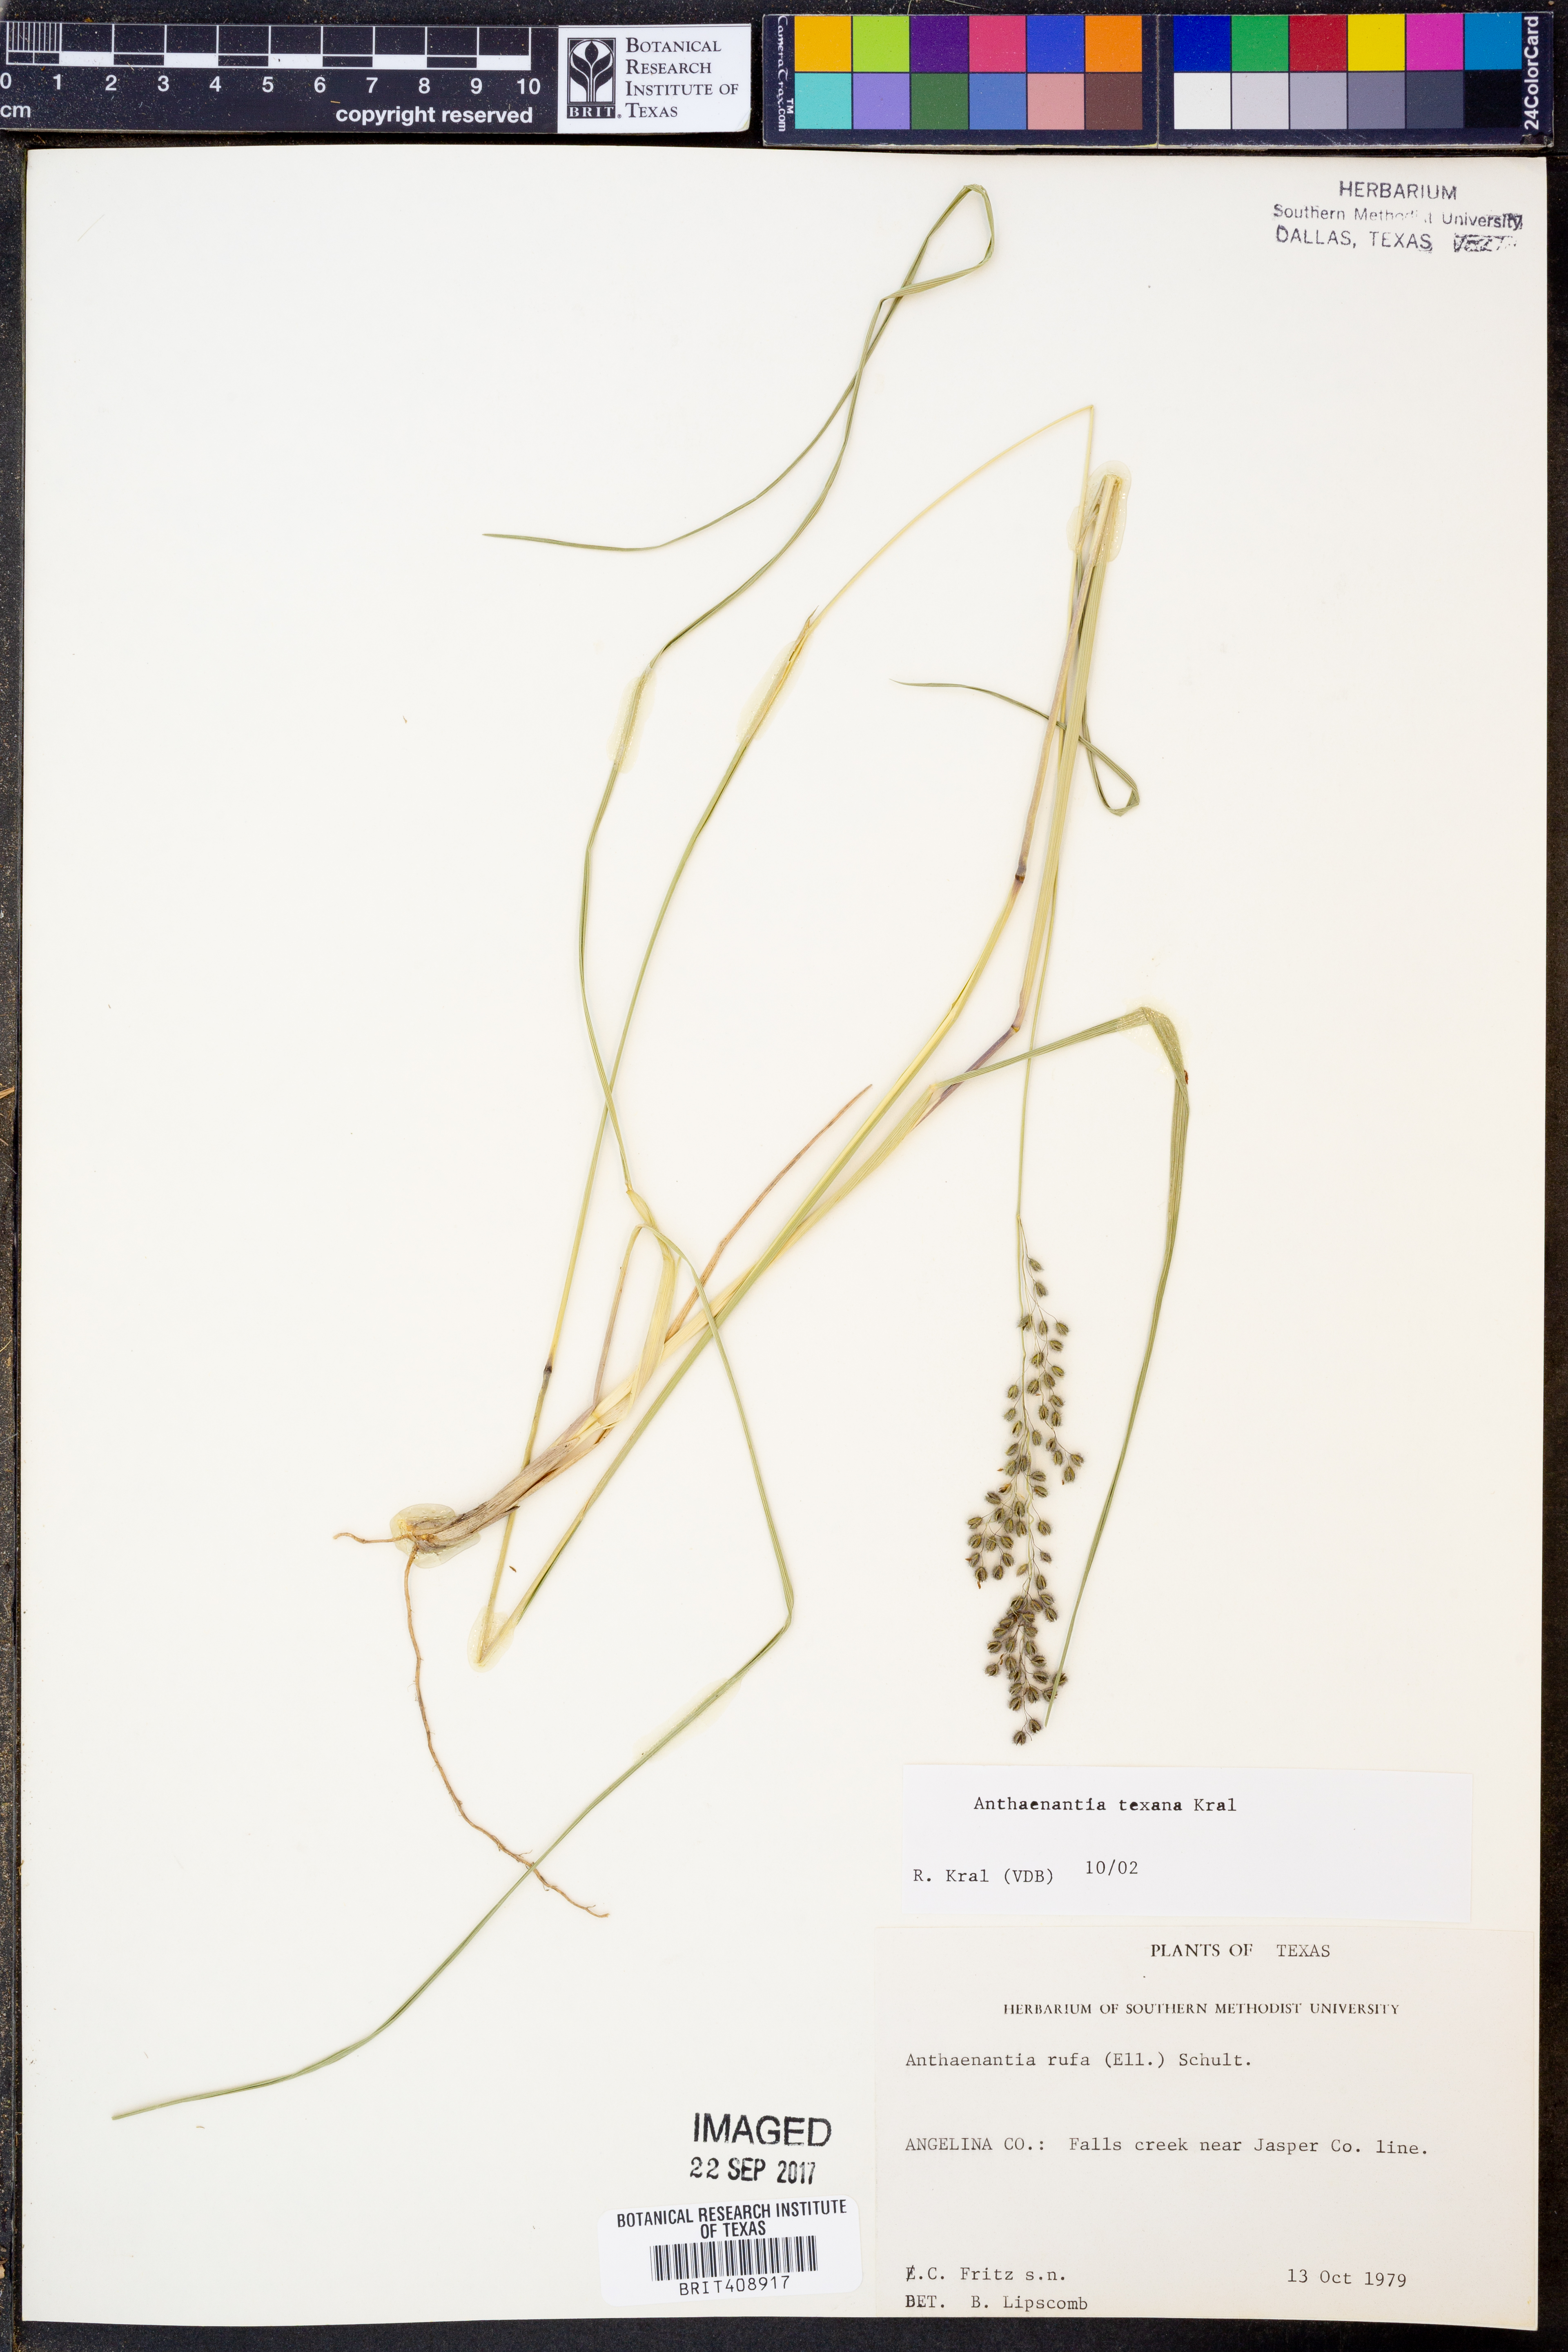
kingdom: Plantae
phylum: Tracheophyta
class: Liliopsida
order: Poales
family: Poaceae
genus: Anthaenantia
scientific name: Anthaenantia texana
